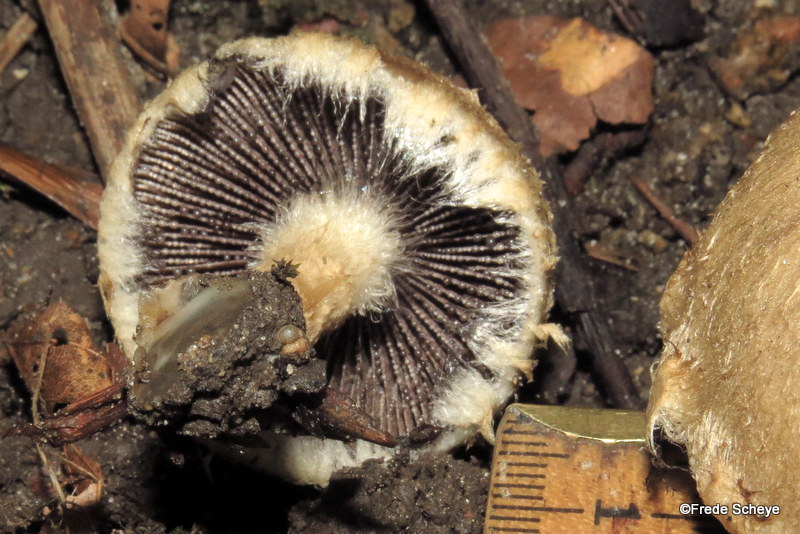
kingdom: Fungi
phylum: Basidiomycota
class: Agaricomycetes
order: Agaricales
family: Psathyrellaceae
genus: Lacrymaria
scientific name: Lacrymaria lacrymabunda
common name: grædende mørkhat
